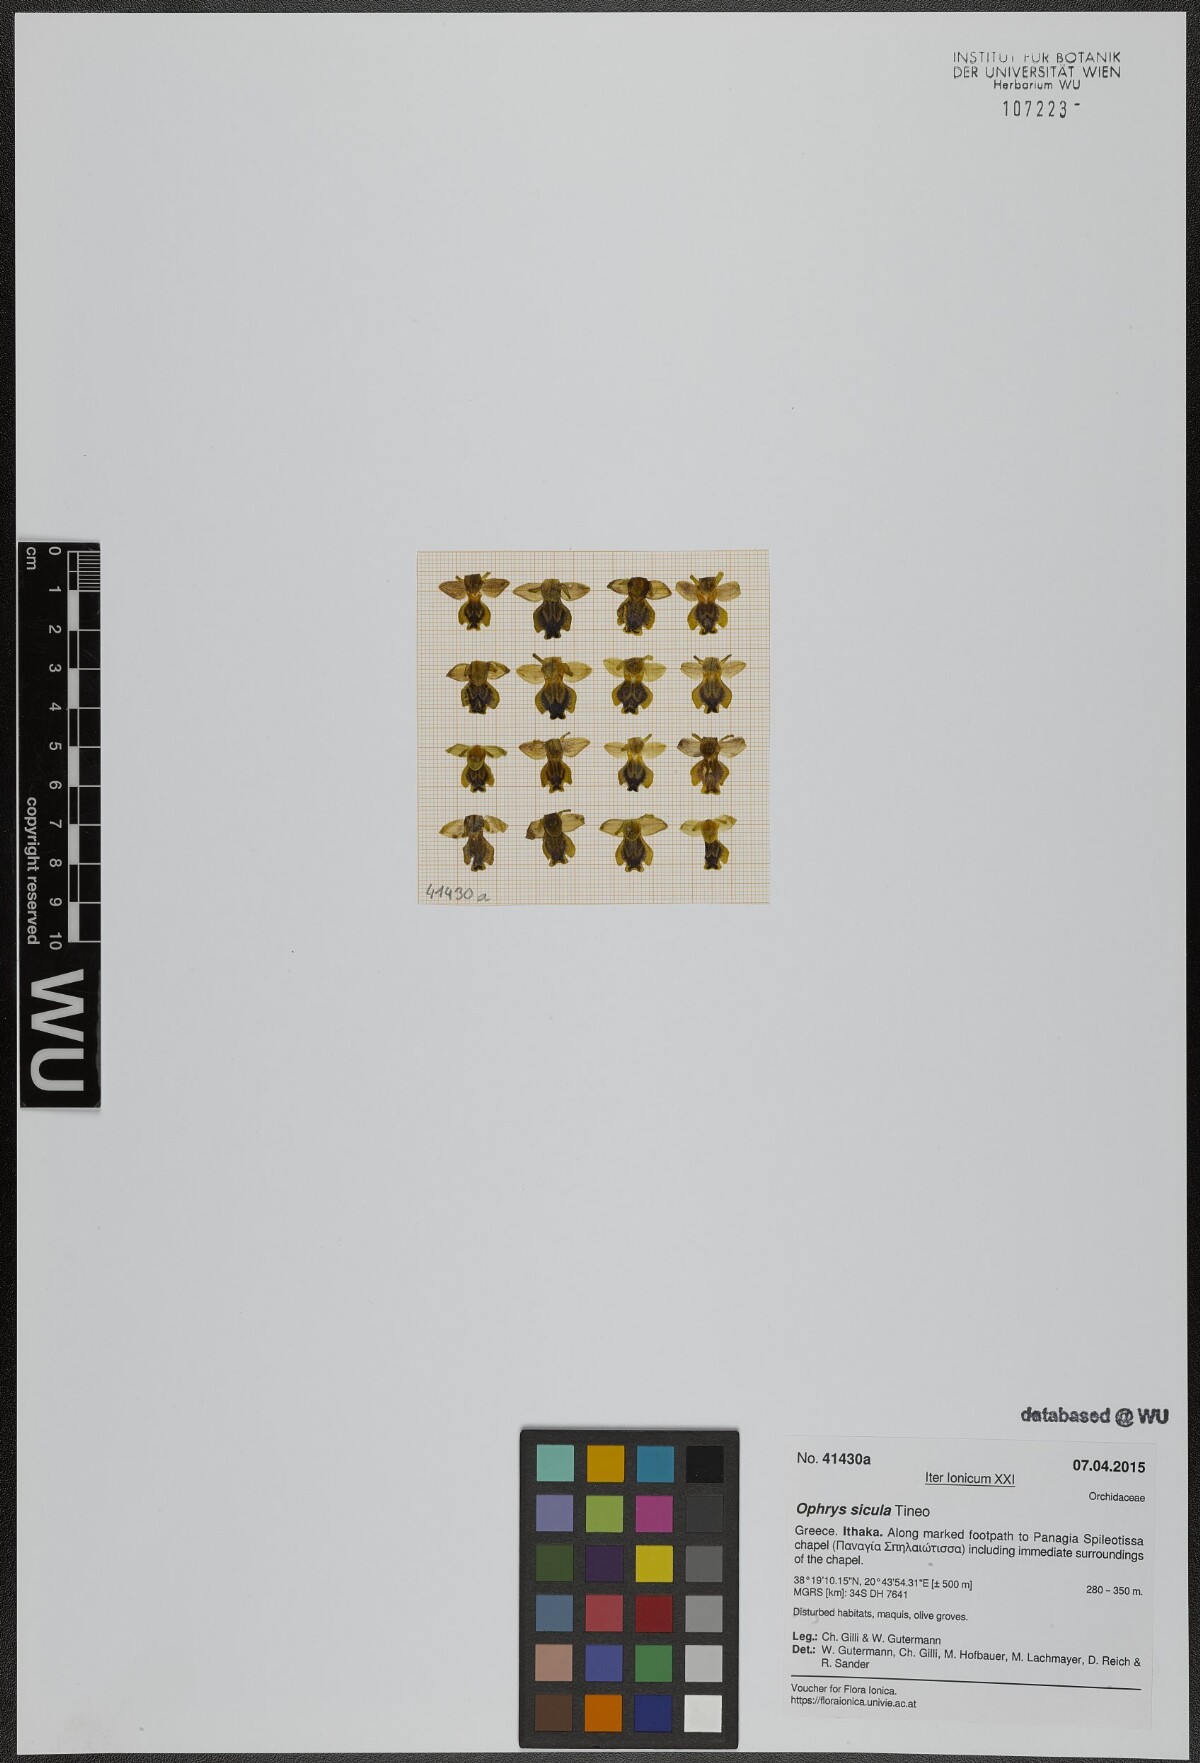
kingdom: Plantae
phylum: Tracheophyta
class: Liliopsida
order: Asparagales
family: Orchidaceae
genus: Ophrys
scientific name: Ophrys lutea
